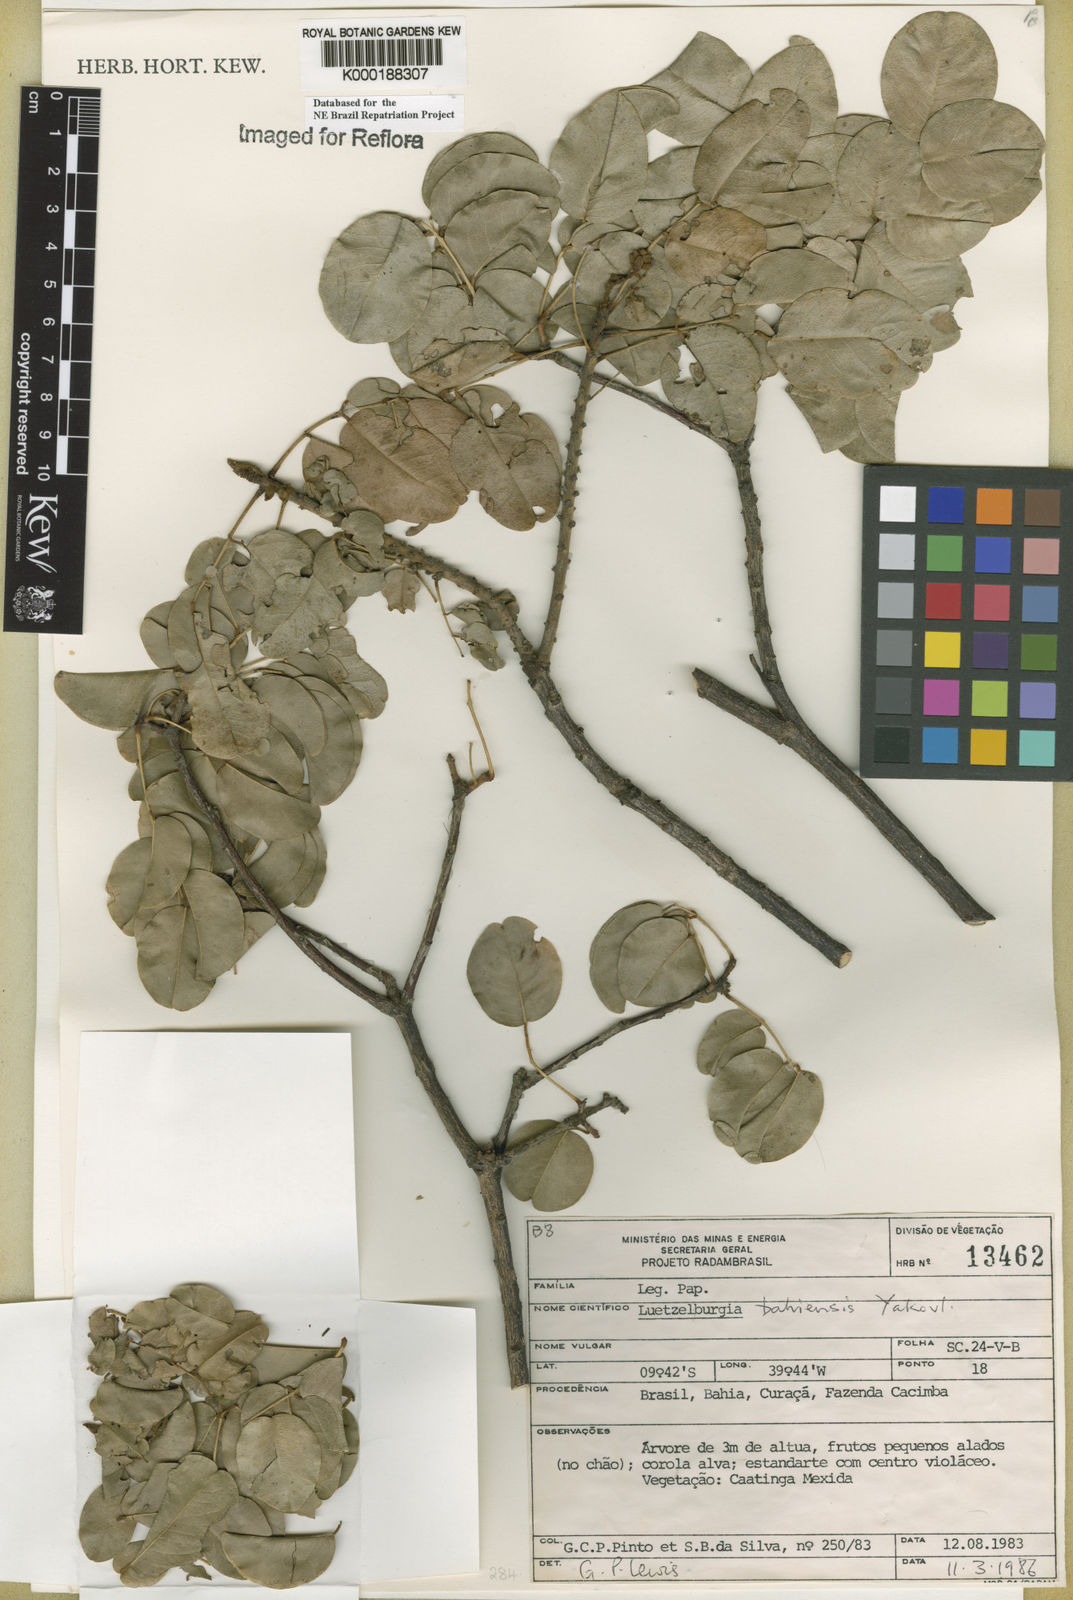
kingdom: Plantae
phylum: Tracheophyta
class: Magnoliopsida
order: Fabales
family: Fabaceae
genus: Luetzelburgia
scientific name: Luetzelburgia bahiensis
